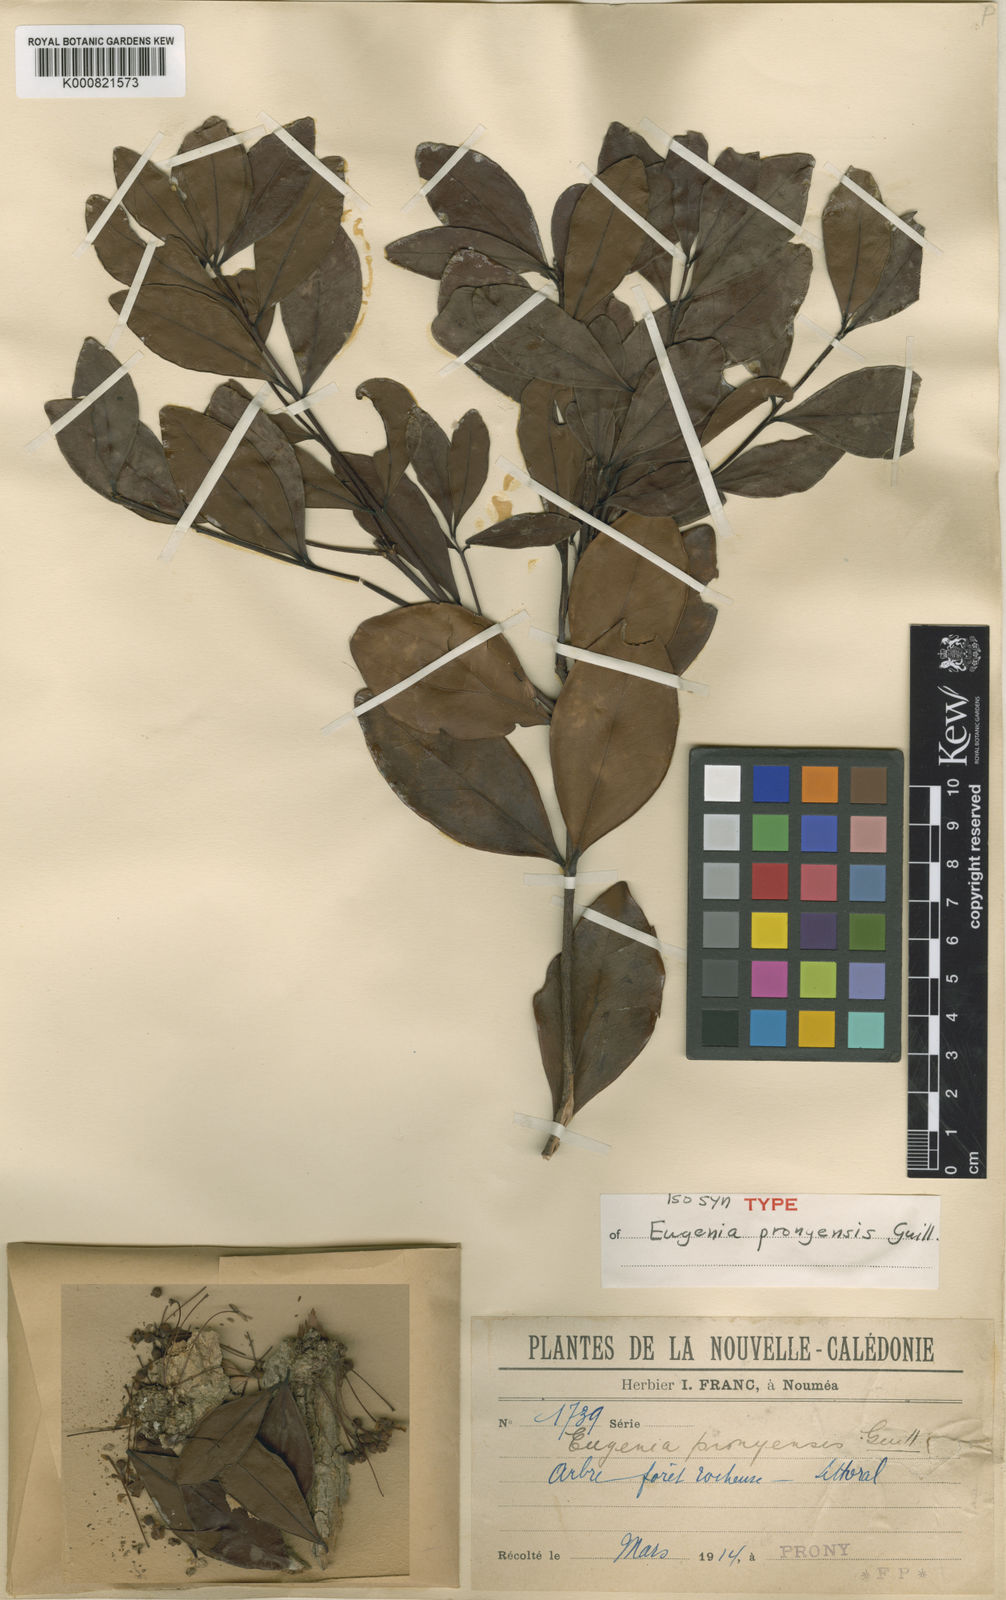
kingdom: Plantae
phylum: Tracheophyta
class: Magnoliopsida
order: Myrtales
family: Myrtaceae
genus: Eugenia
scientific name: Eugenia pronyensis
